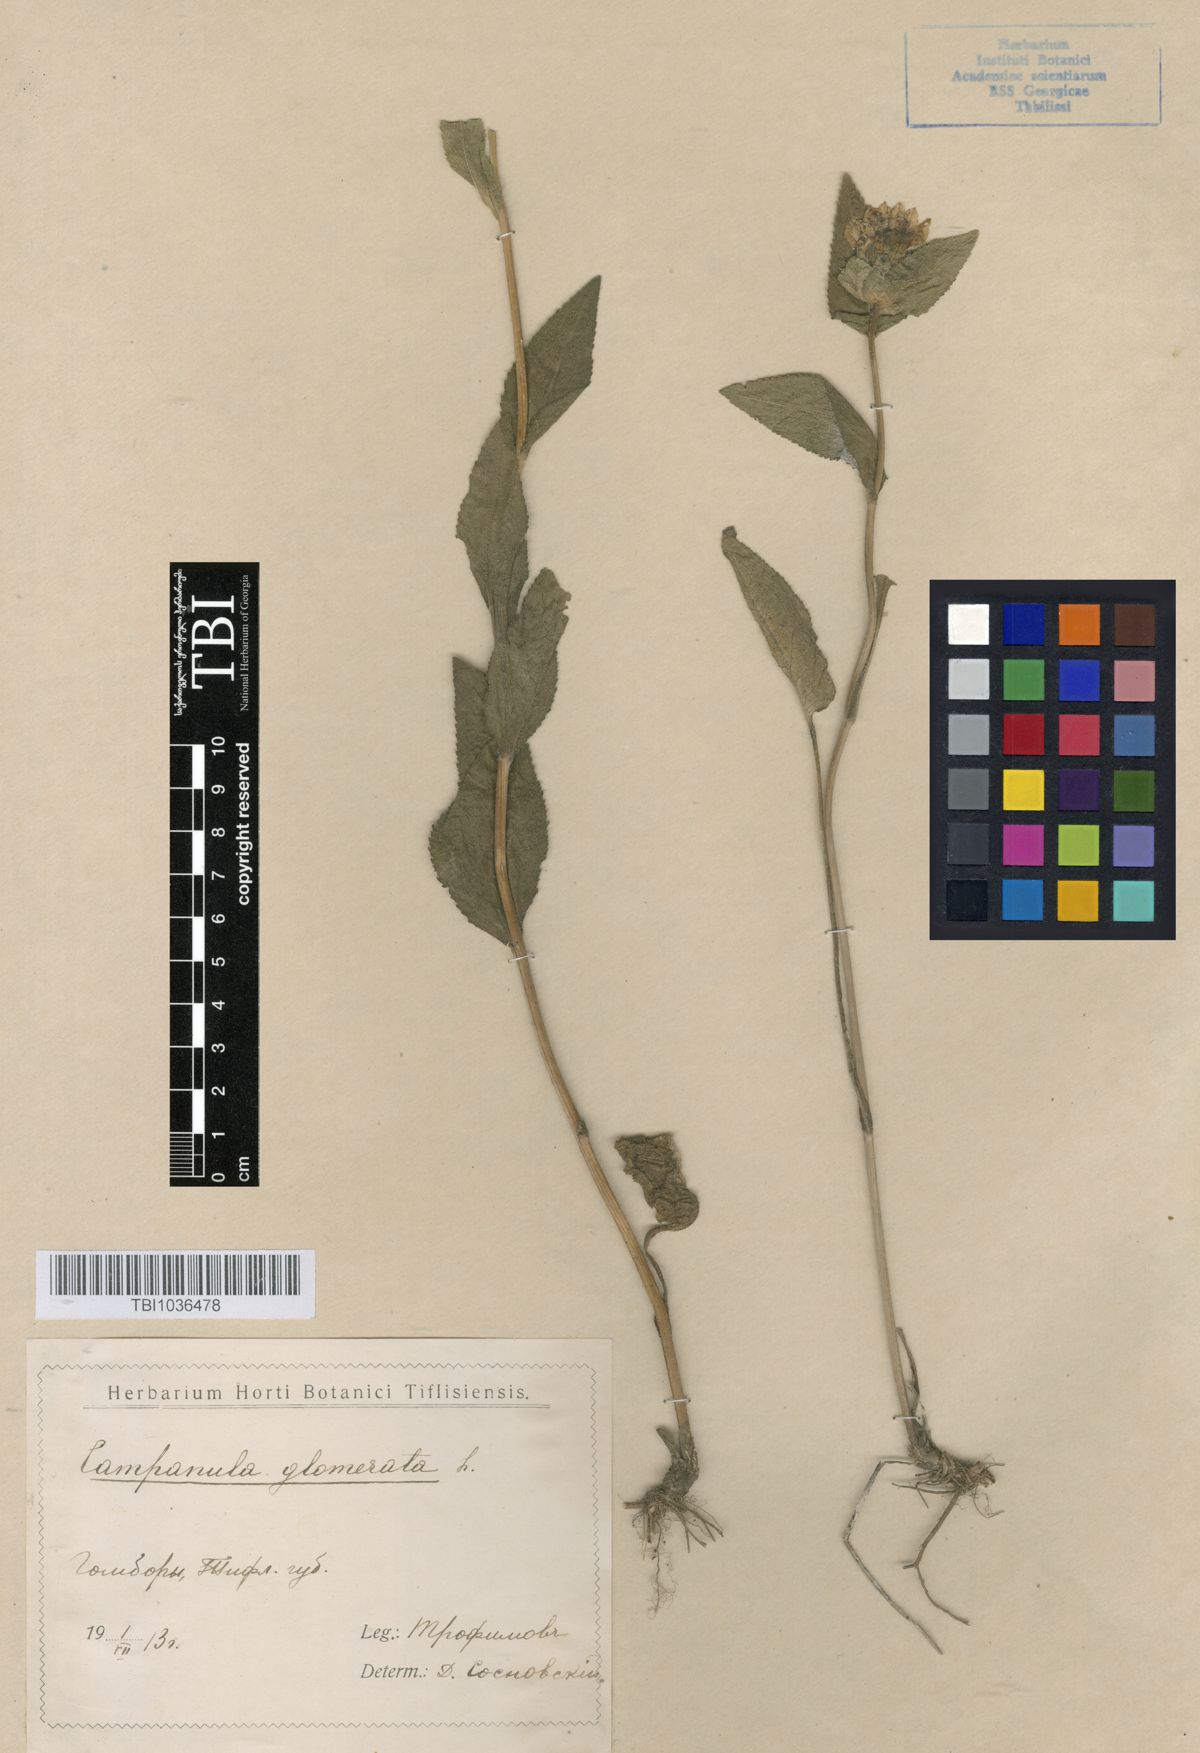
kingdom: Plantae
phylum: Tracheophyta
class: Magnoliopsida
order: Asterales
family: Campanulaceae
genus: Campanula
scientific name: Campanula glomerata
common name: Clustered bellflower
